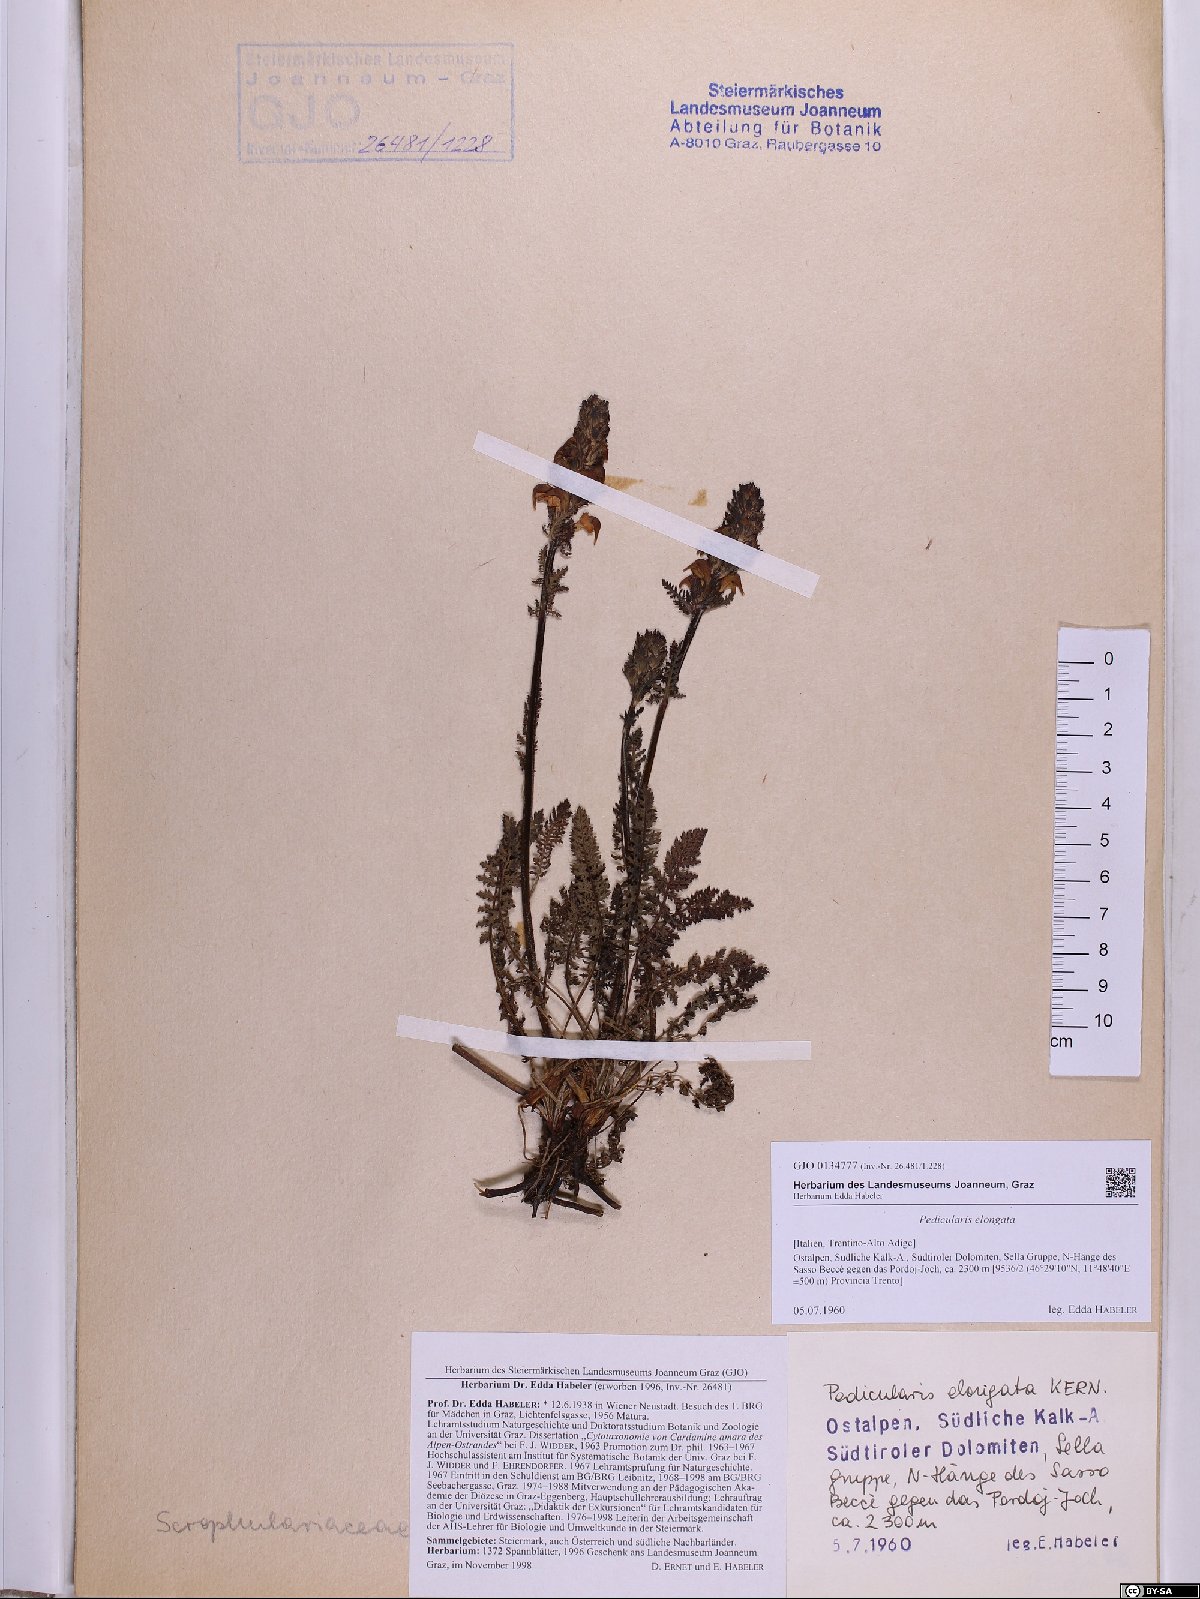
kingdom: Plantae
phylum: Tracheophyta
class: Magnoliopsida
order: Lamiales
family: Orobanchaceae
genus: Pedicularis
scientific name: Pedicularis elongata
